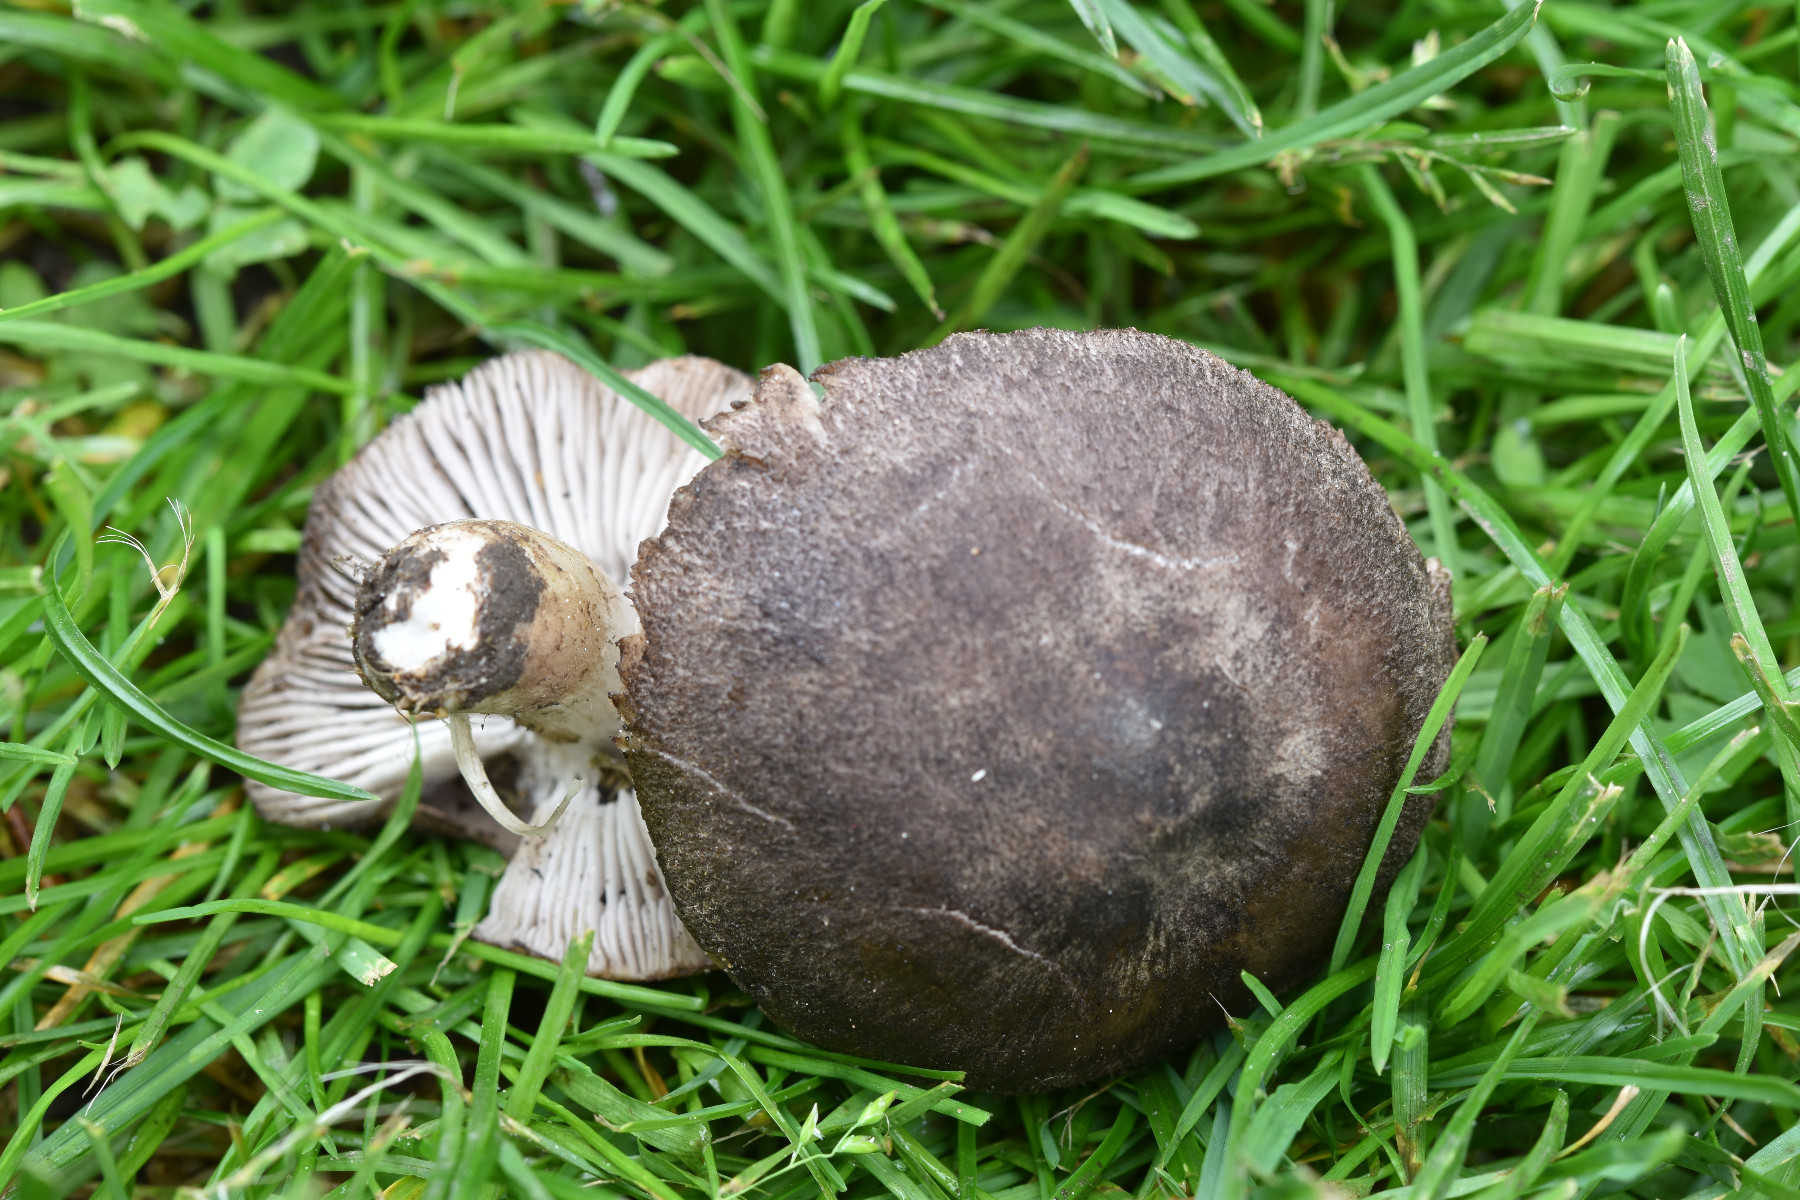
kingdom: Fungi
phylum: Basidiomycota
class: Agaricomycetes
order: Agaricales
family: Tricholomataceae
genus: Tricholoma
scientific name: Tricholoma terreum
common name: jordfarvet ridderhat
